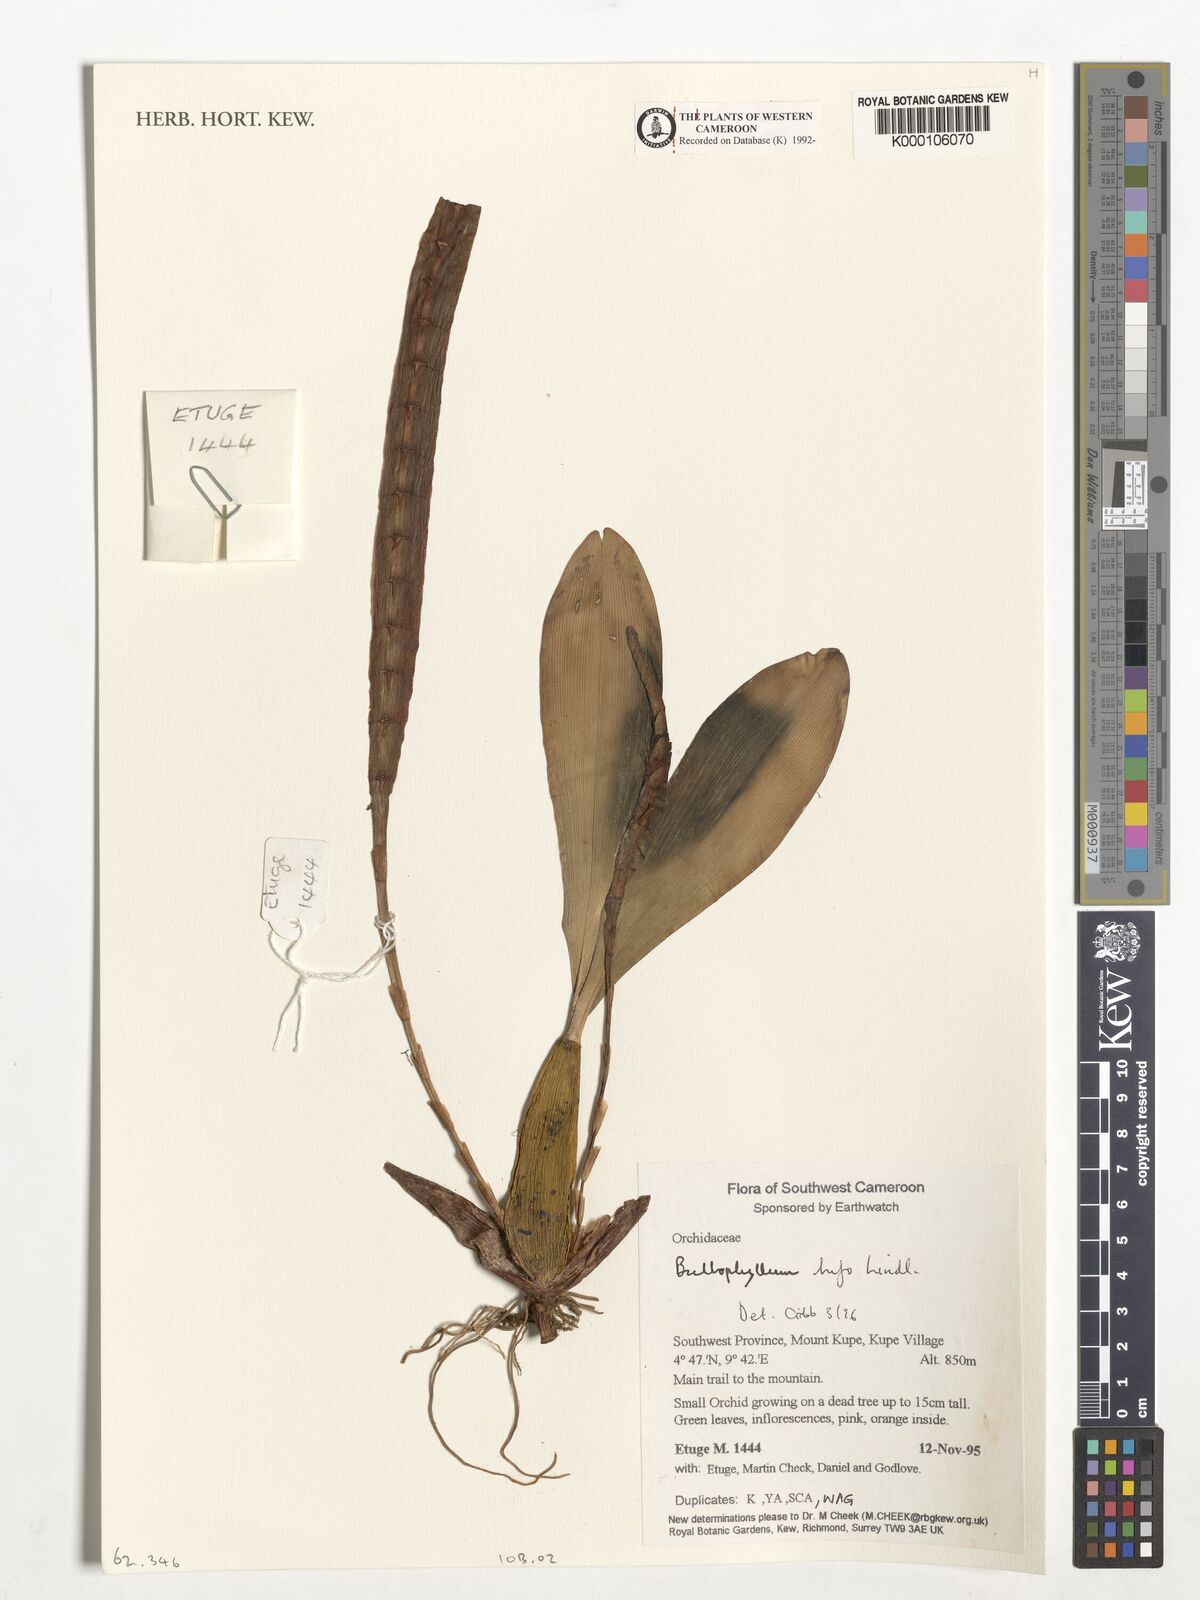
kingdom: Plantae
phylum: Tracheophyta
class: Liliopsida
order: Asparagales
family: Orchidaceae
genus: Bulbophyllum
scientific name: Bulbophyllum falcatum
